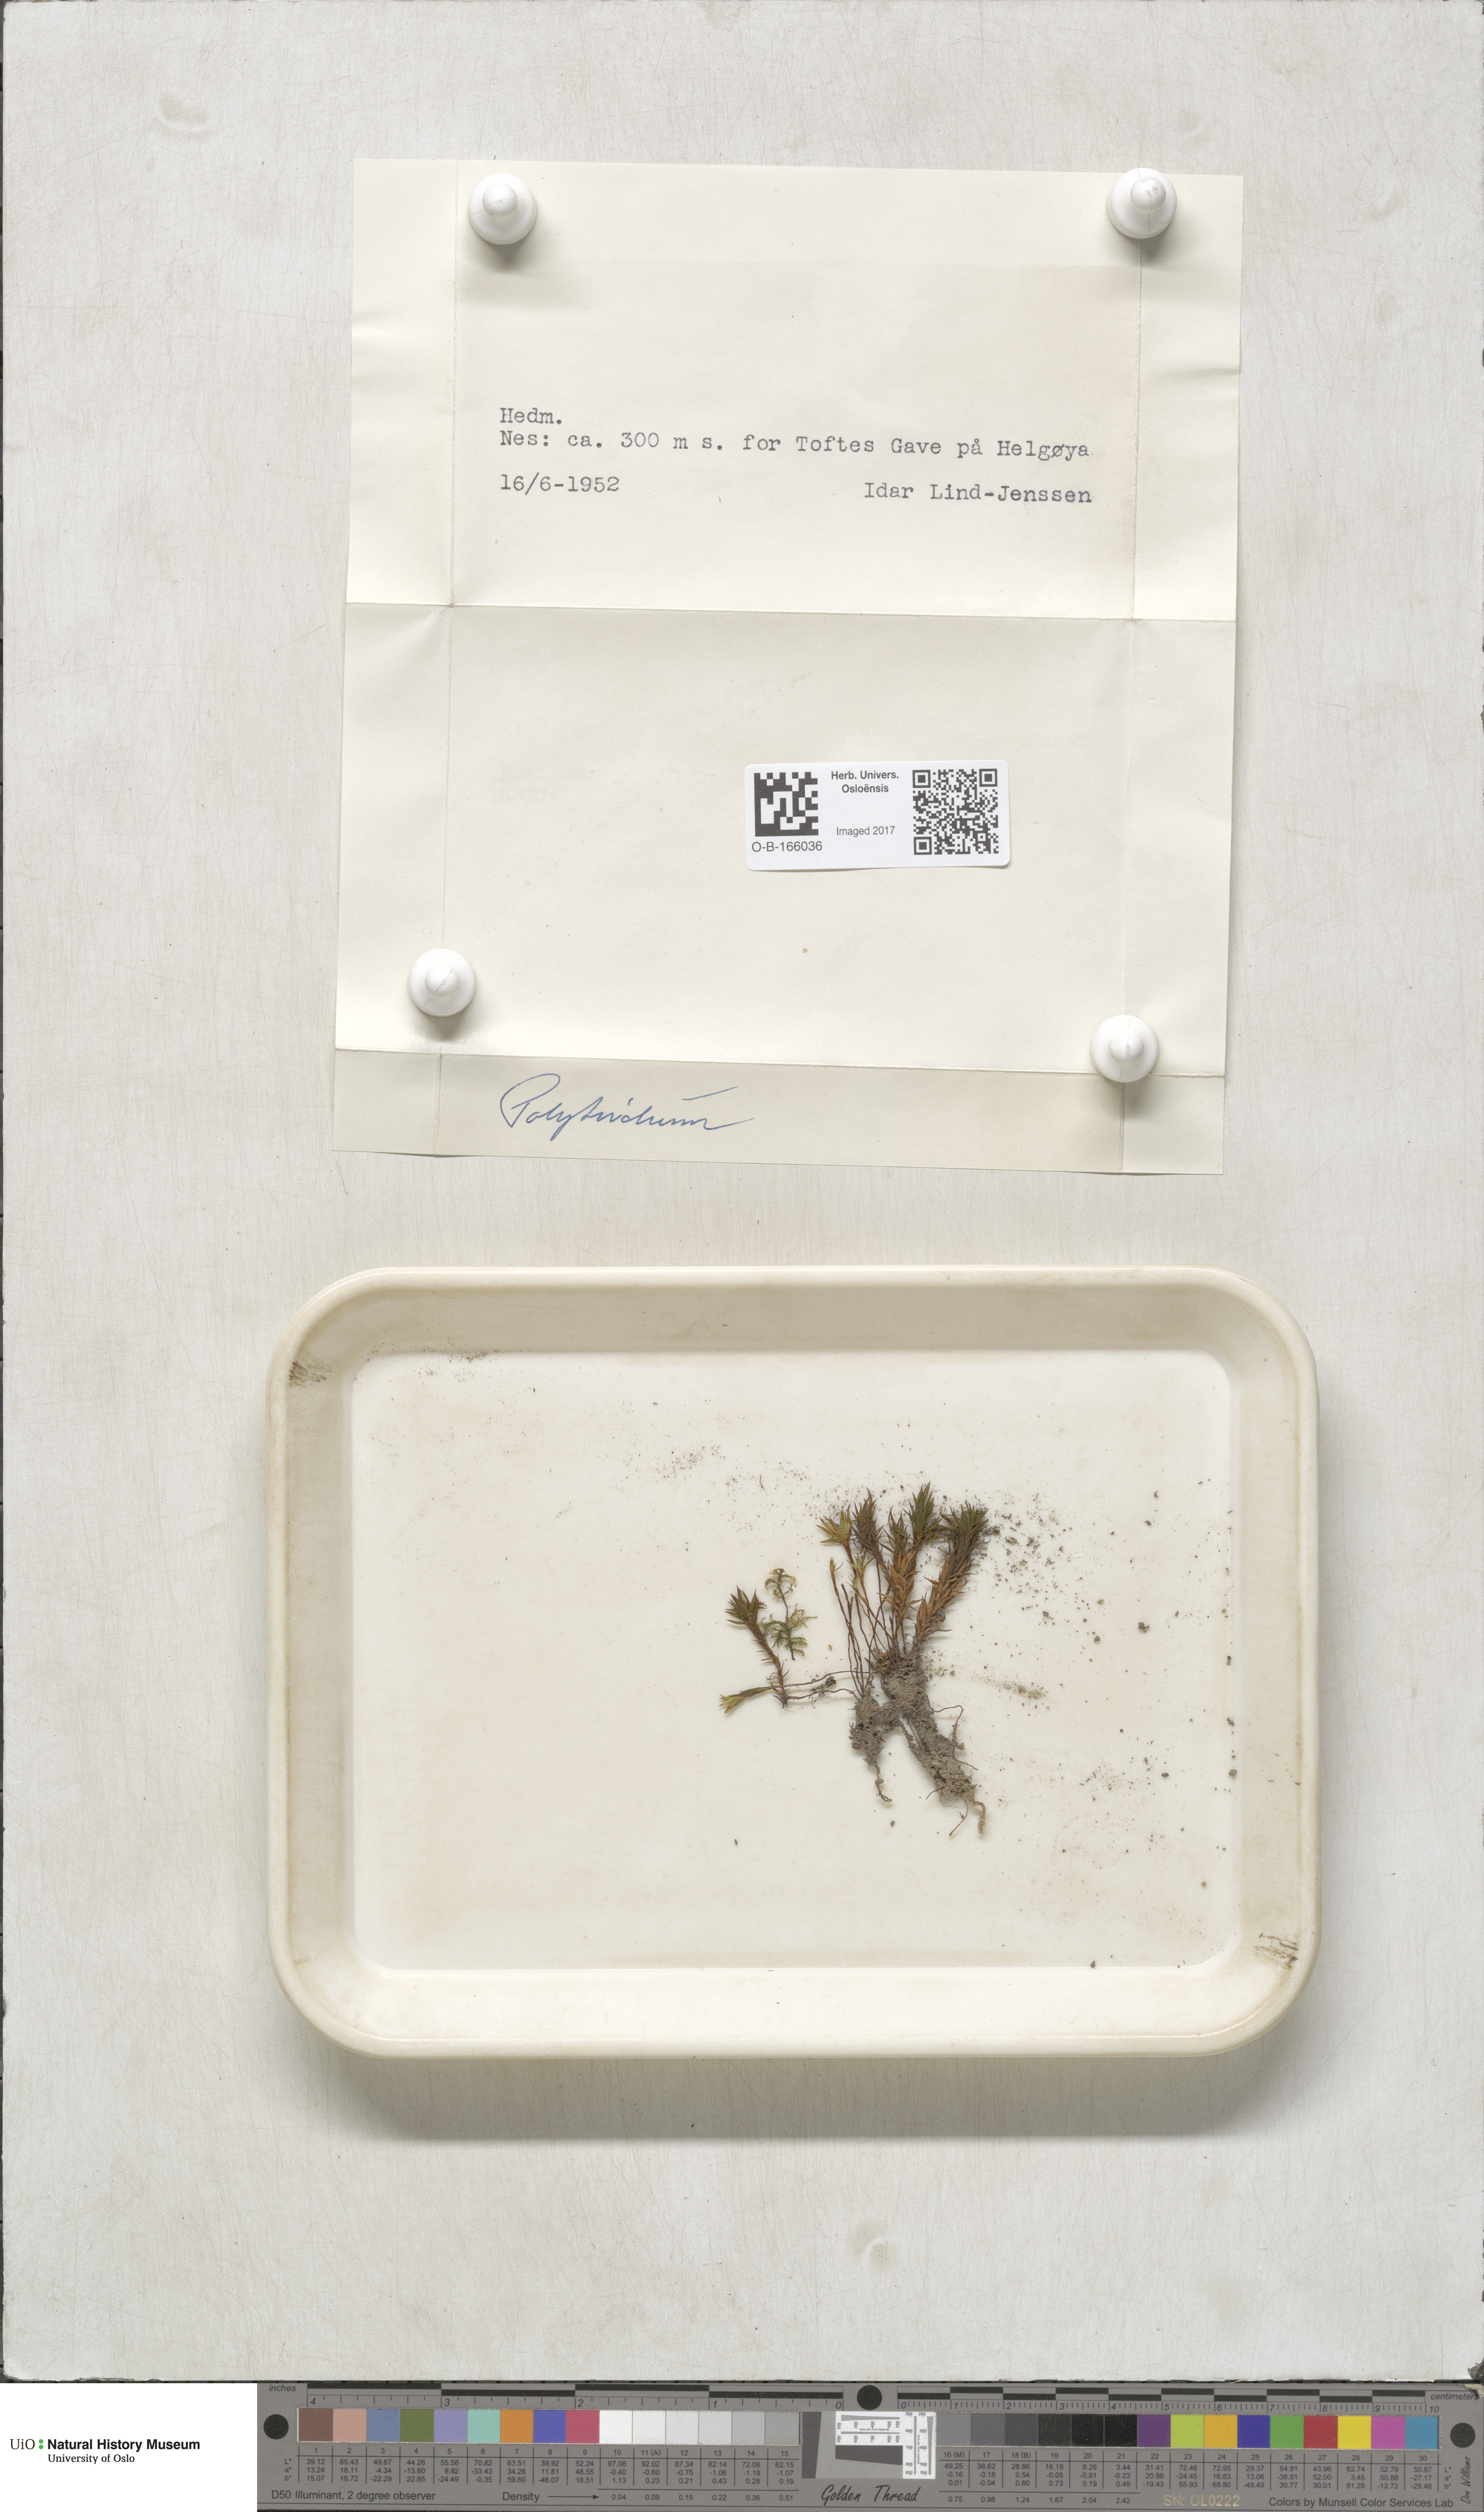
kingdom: Plantae
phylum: Bryophyta
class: Polytrichopsida
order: Polytrichales
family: Polytrichaceae
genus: Polytrichum
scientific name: Polytrichum
